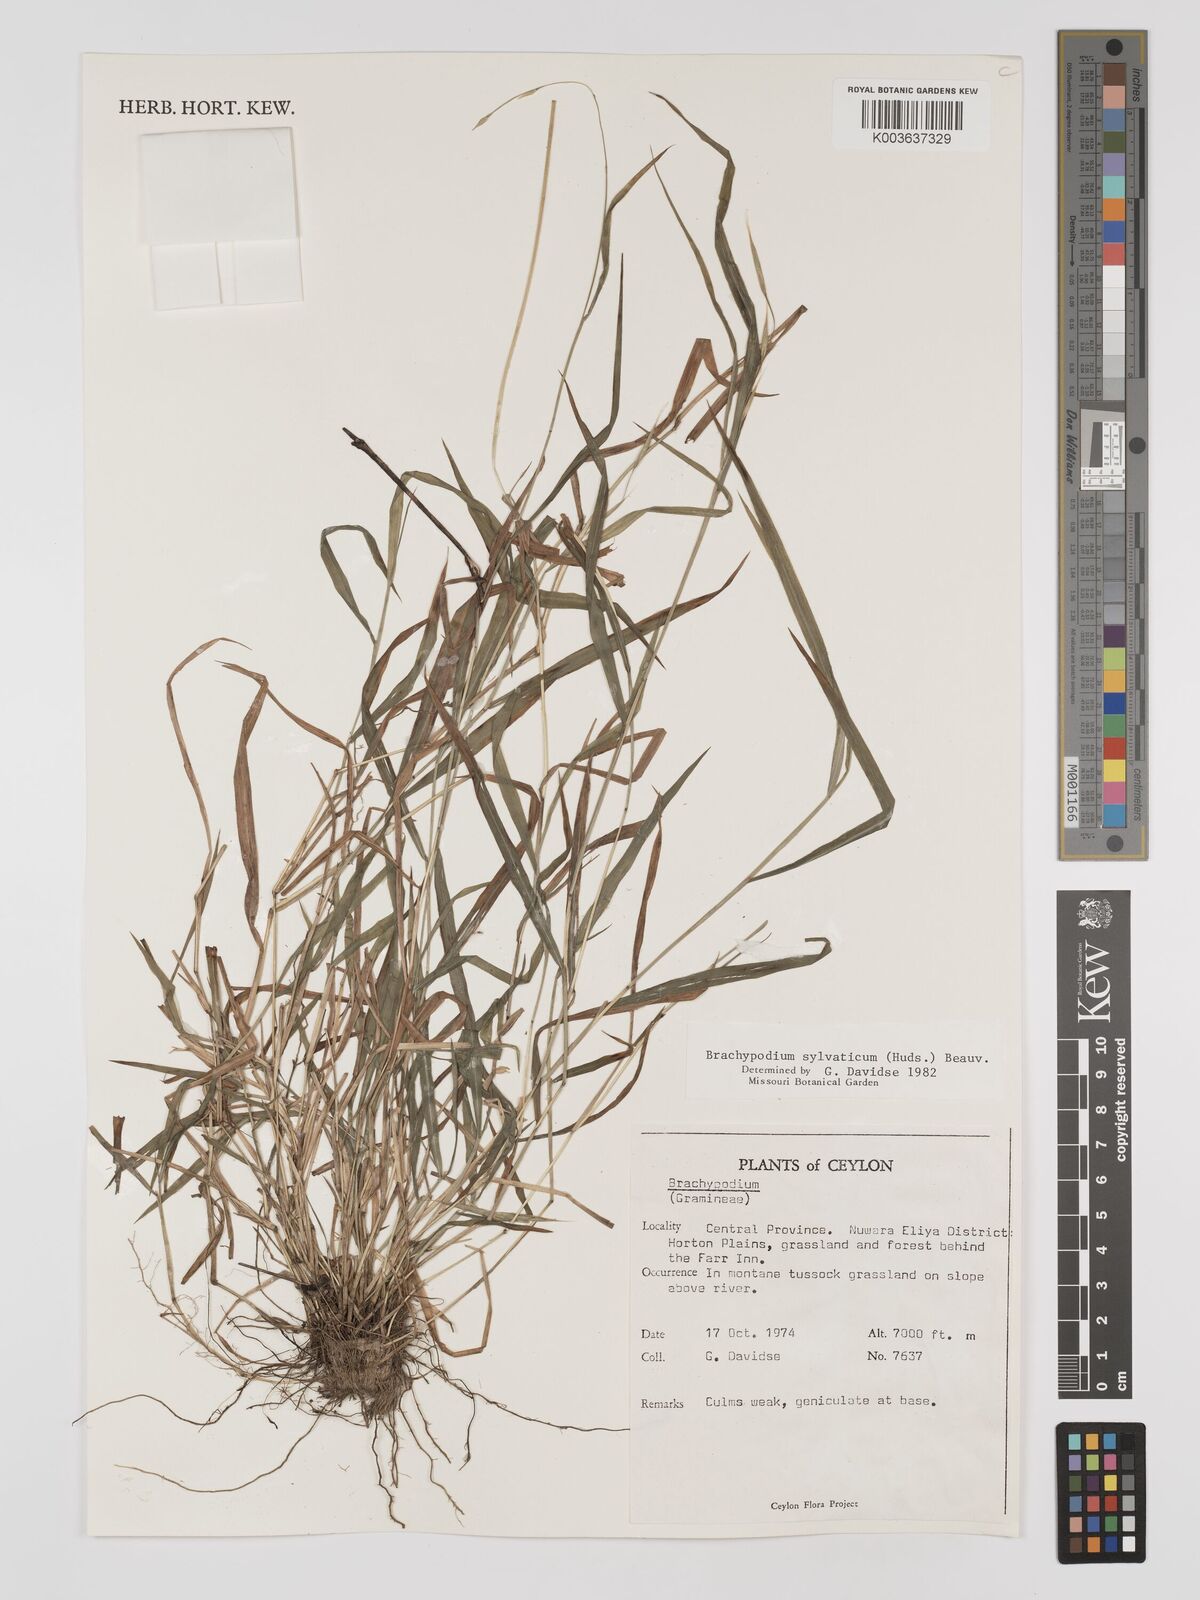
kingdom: Plantae
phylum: Tracheophyta
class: Liliopsida
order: Poales
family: Poaceae
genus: Brachypodium
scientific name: Brachypodium sylvaticum
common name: False-brome
